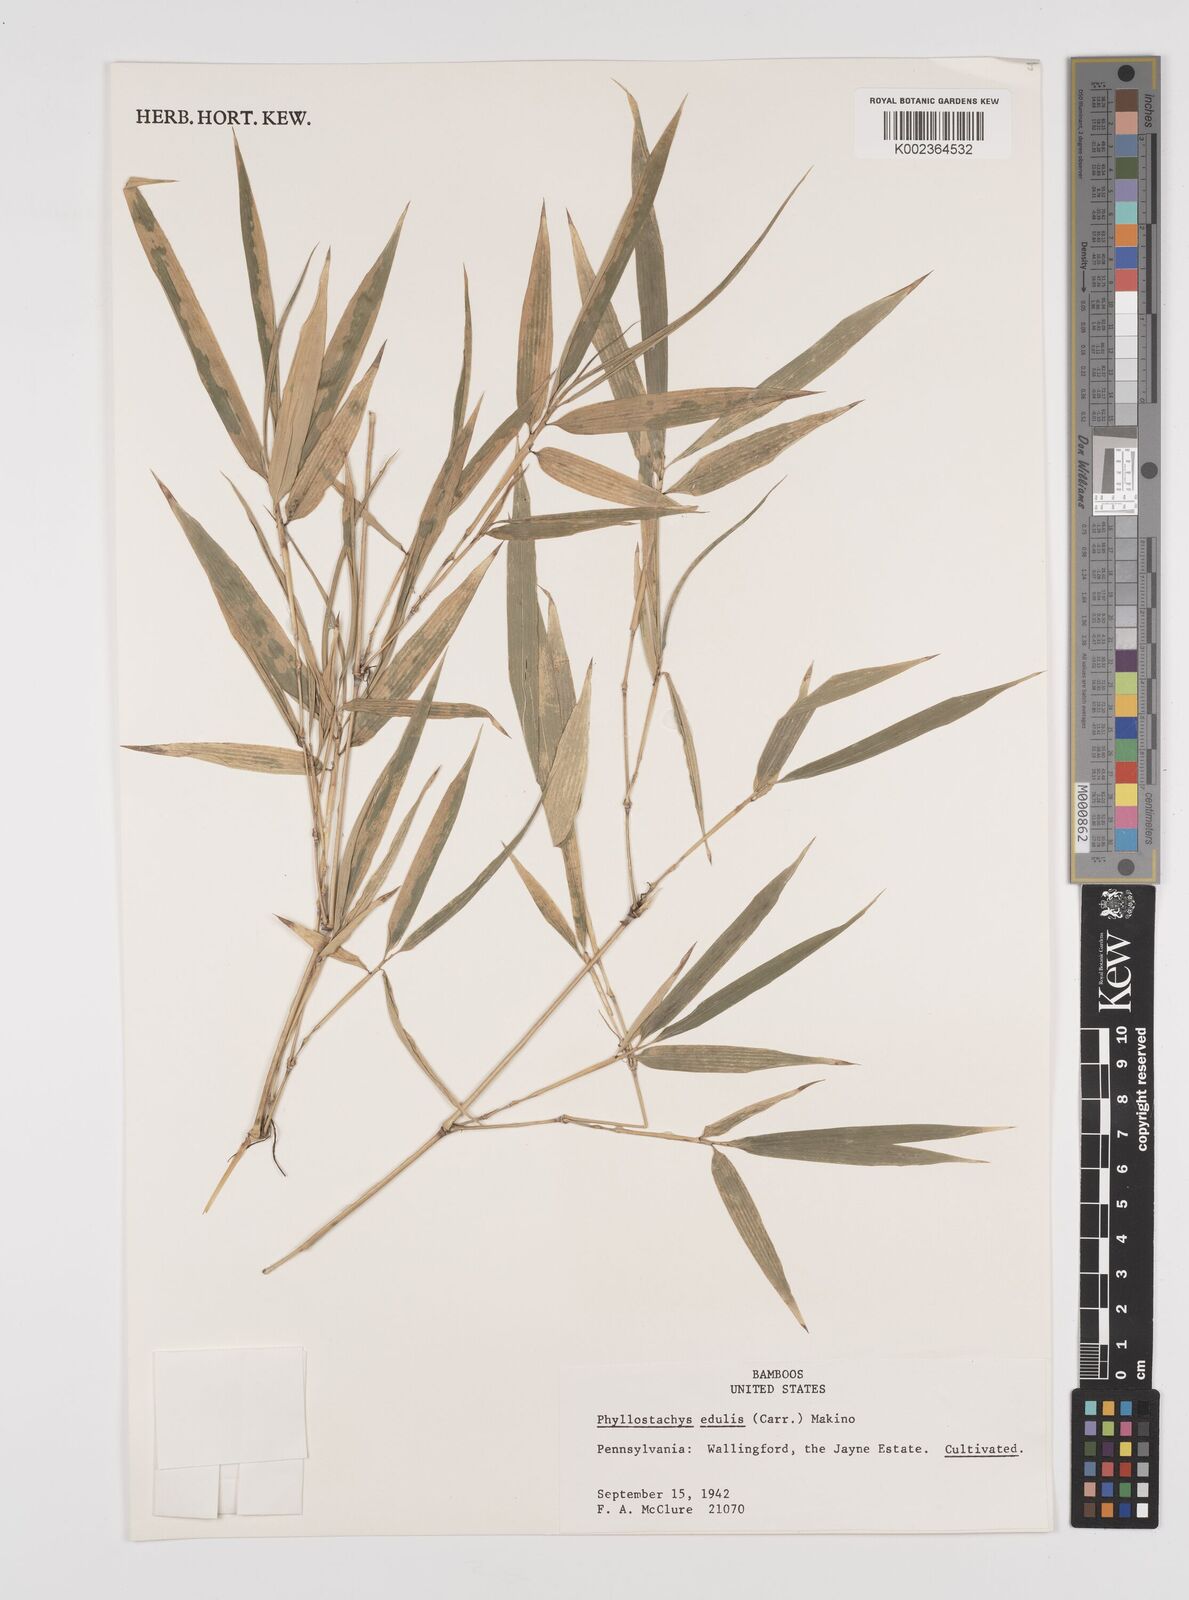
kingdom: Plantae
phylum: Tracheophyta
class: Liliopsida
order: Poales
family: Poaceae
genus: Phyllostachys
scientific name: Phyllostachys edulis
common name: Tortoise shell bamboo
